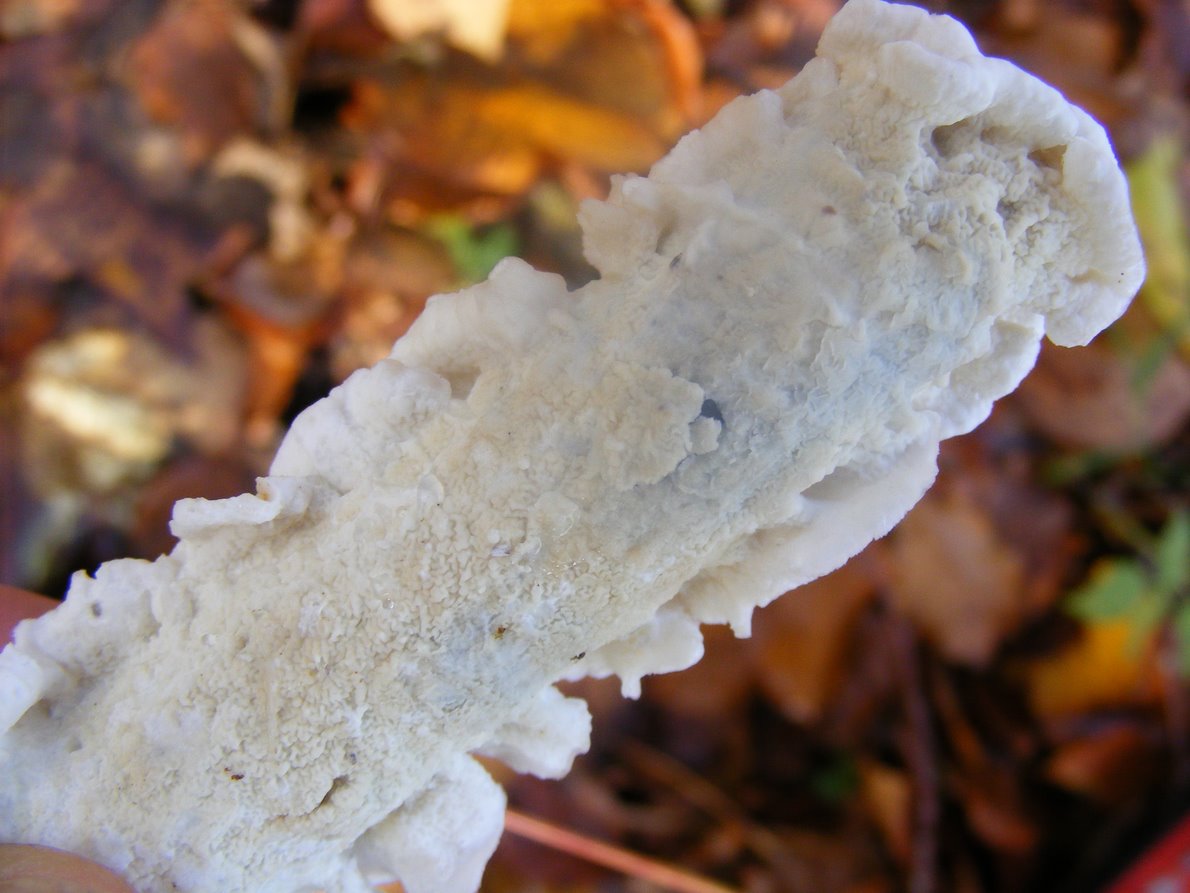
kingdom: Fungi
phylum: Basidiomycota
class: Agaricomycetes
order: Polyporales
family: Irpicaceae
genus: Byssomerulius
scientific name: Byssomerulius corium
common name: læder-åresvamp
